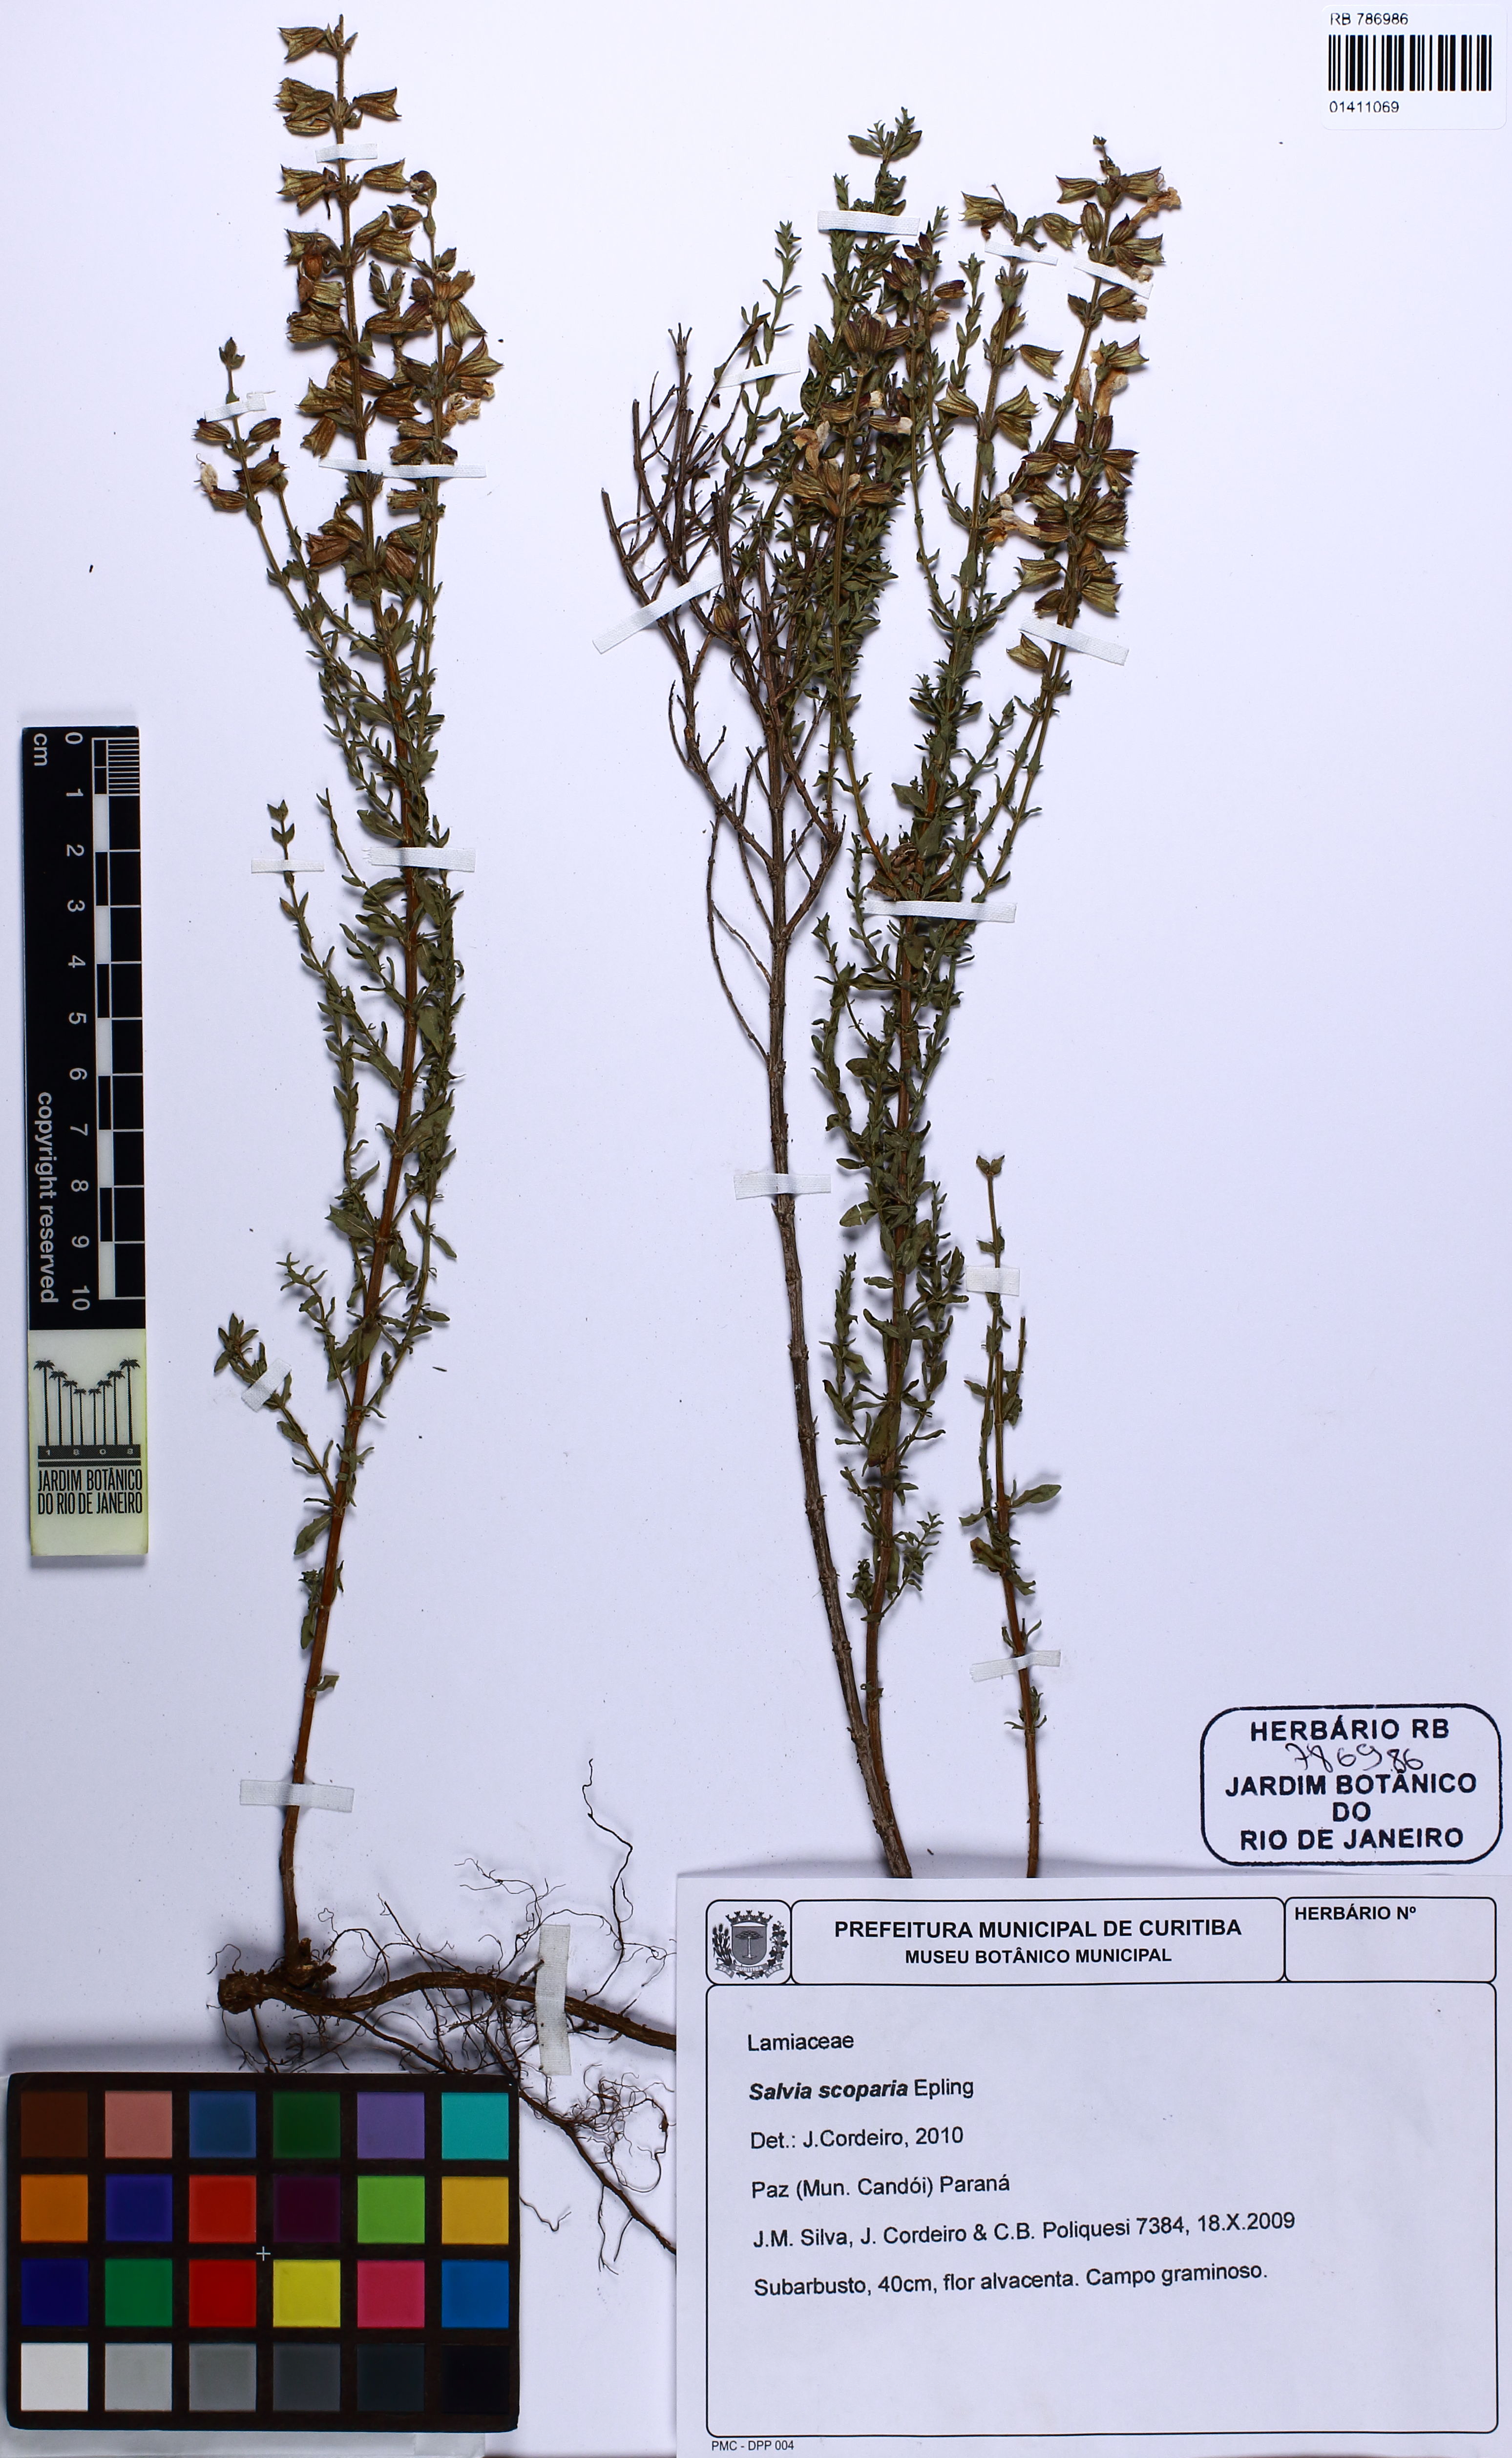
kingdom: Plantae
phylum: Tracheophyta
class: Magnoliopsida
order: Lamiales
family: Lamiaceae
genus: Salvia
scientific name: Salvia scoparia
